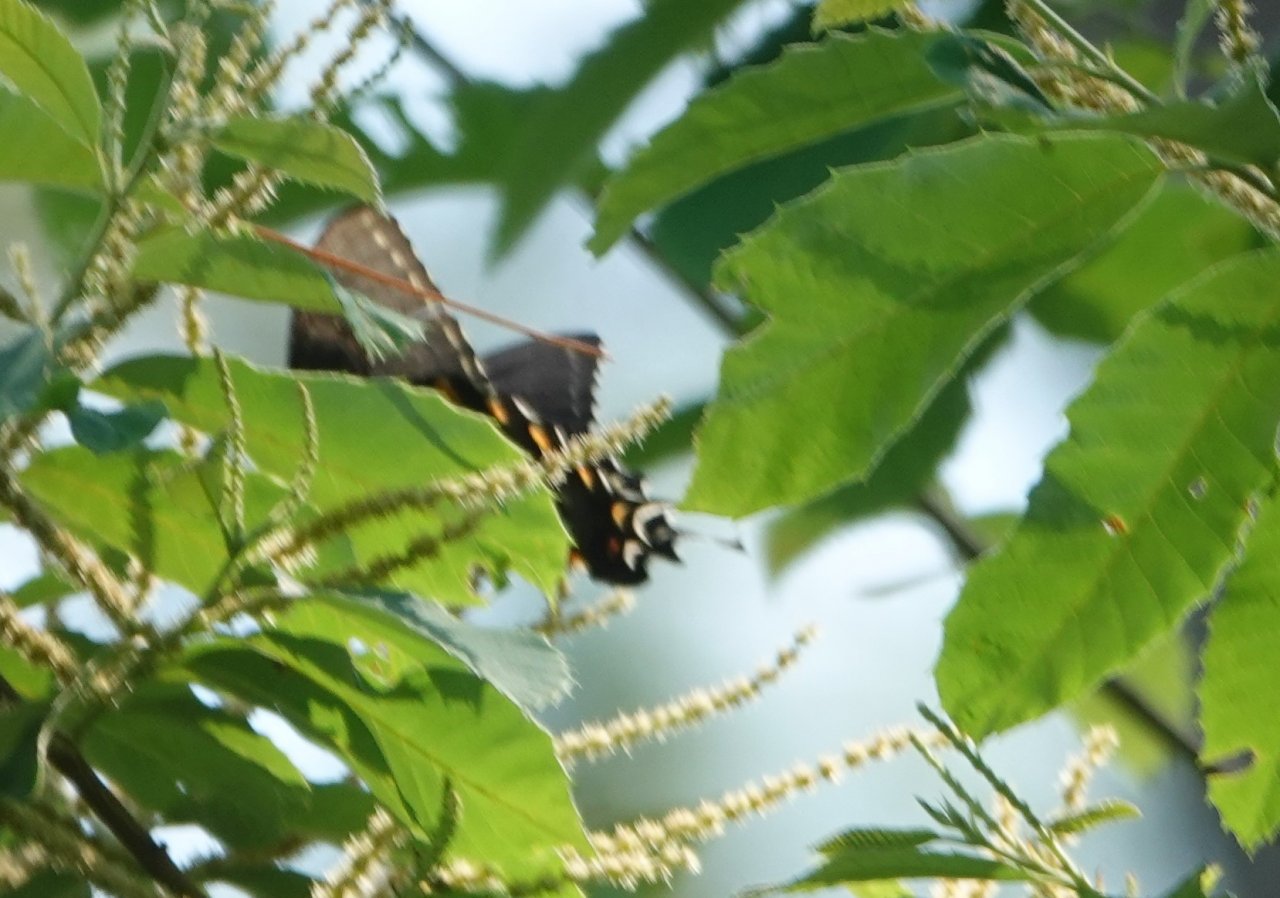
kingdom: Animalia
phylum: Arthropoda
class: Insecta
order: Lepidoptera
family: Papilionidae
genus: Pterourus
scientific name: Pterourus glaucus
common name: Eastern Tiger Swallowtail
